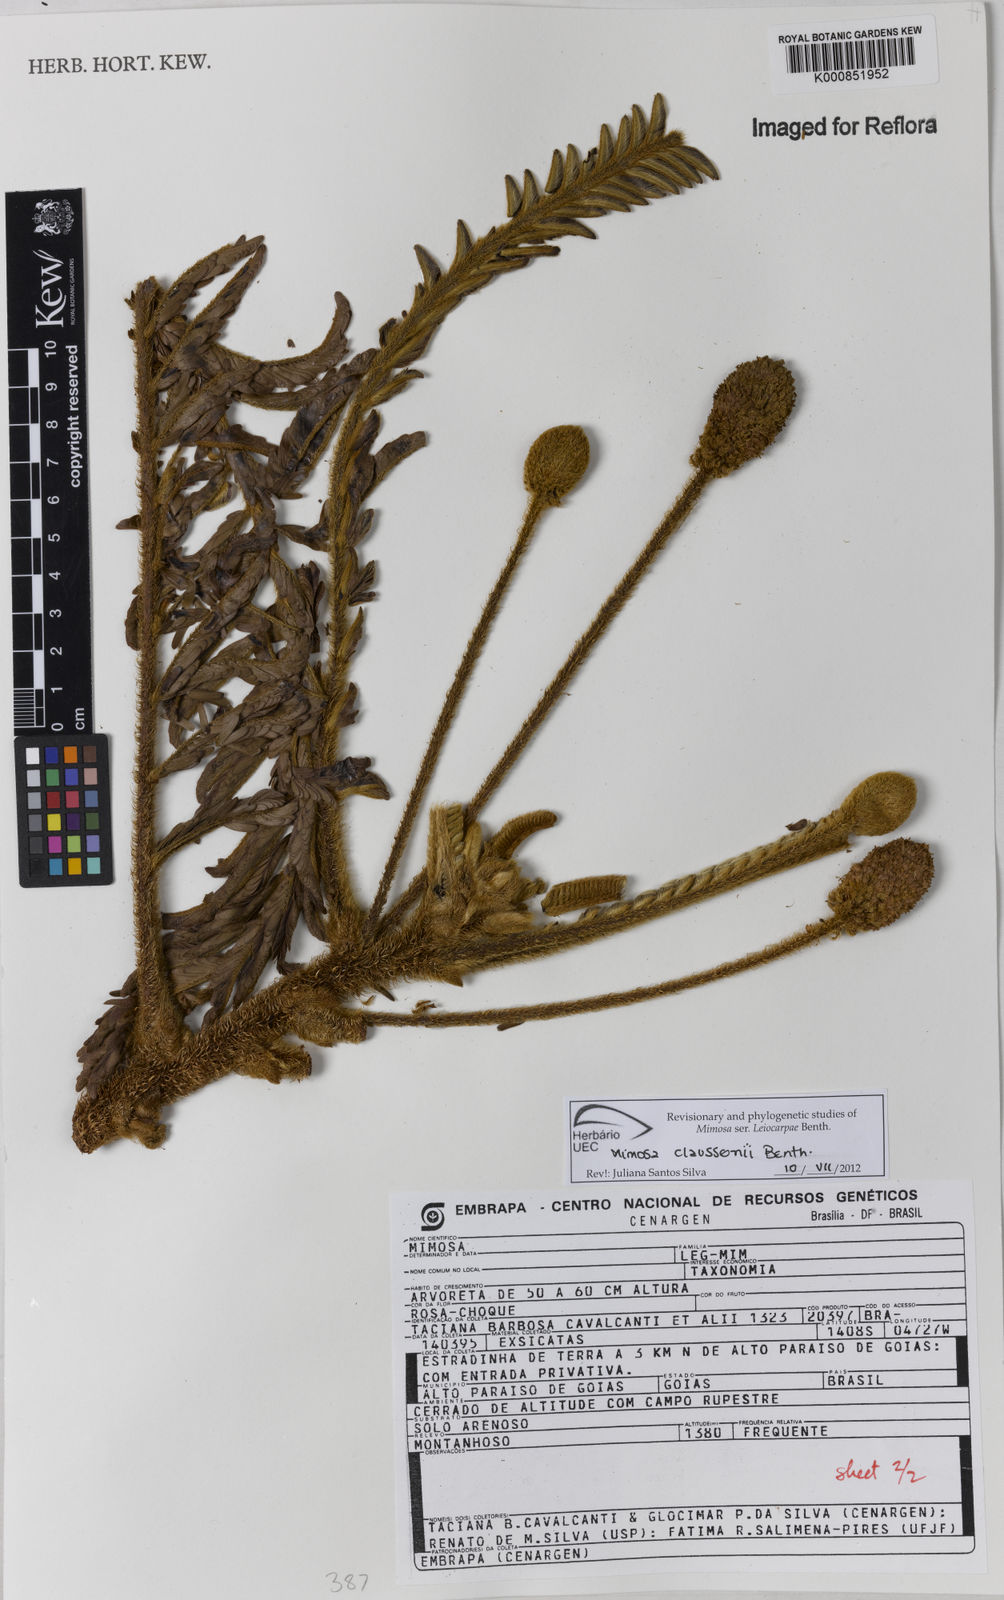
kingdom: Plantae
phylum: Tracheophyta
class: Magnoliopsida
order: Fabales
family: Fabaceae
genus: Mimosa
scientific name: Mimosa claussenii
